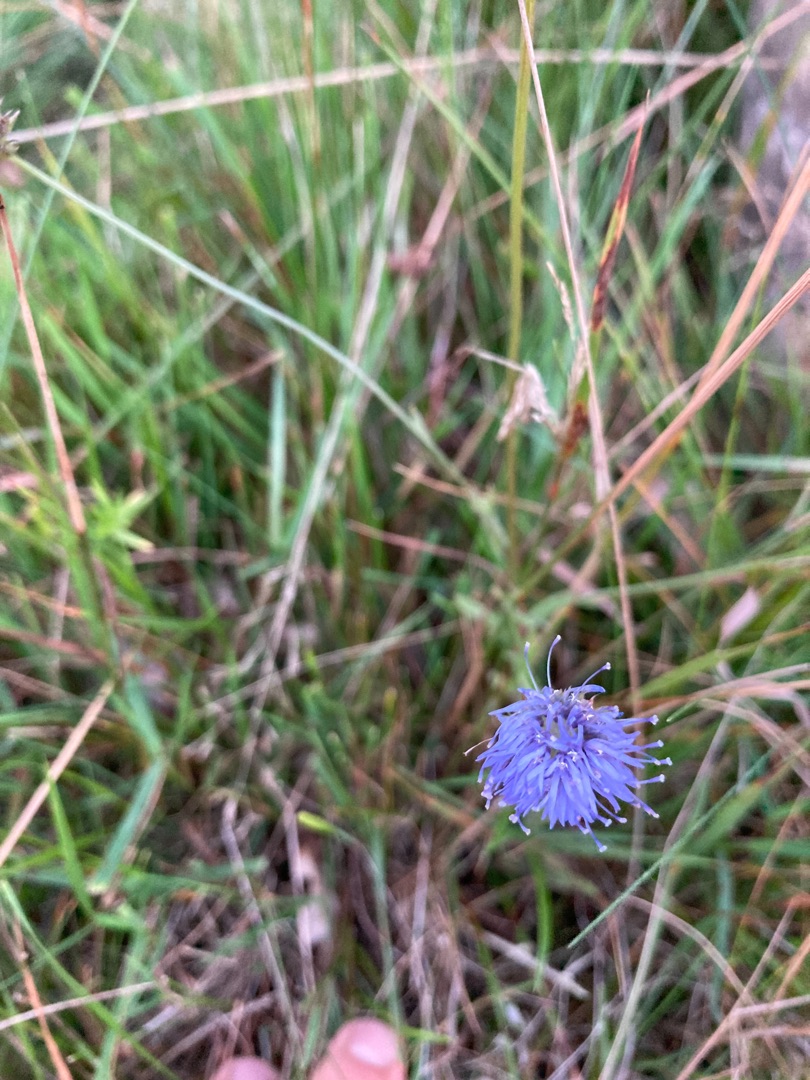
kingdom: Plantae
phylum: Tracheophyta
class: Magnoliopsida
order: Asterales
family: Campanulaceae
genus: Jasione
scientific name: Jasione montana
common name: Blåmunke
